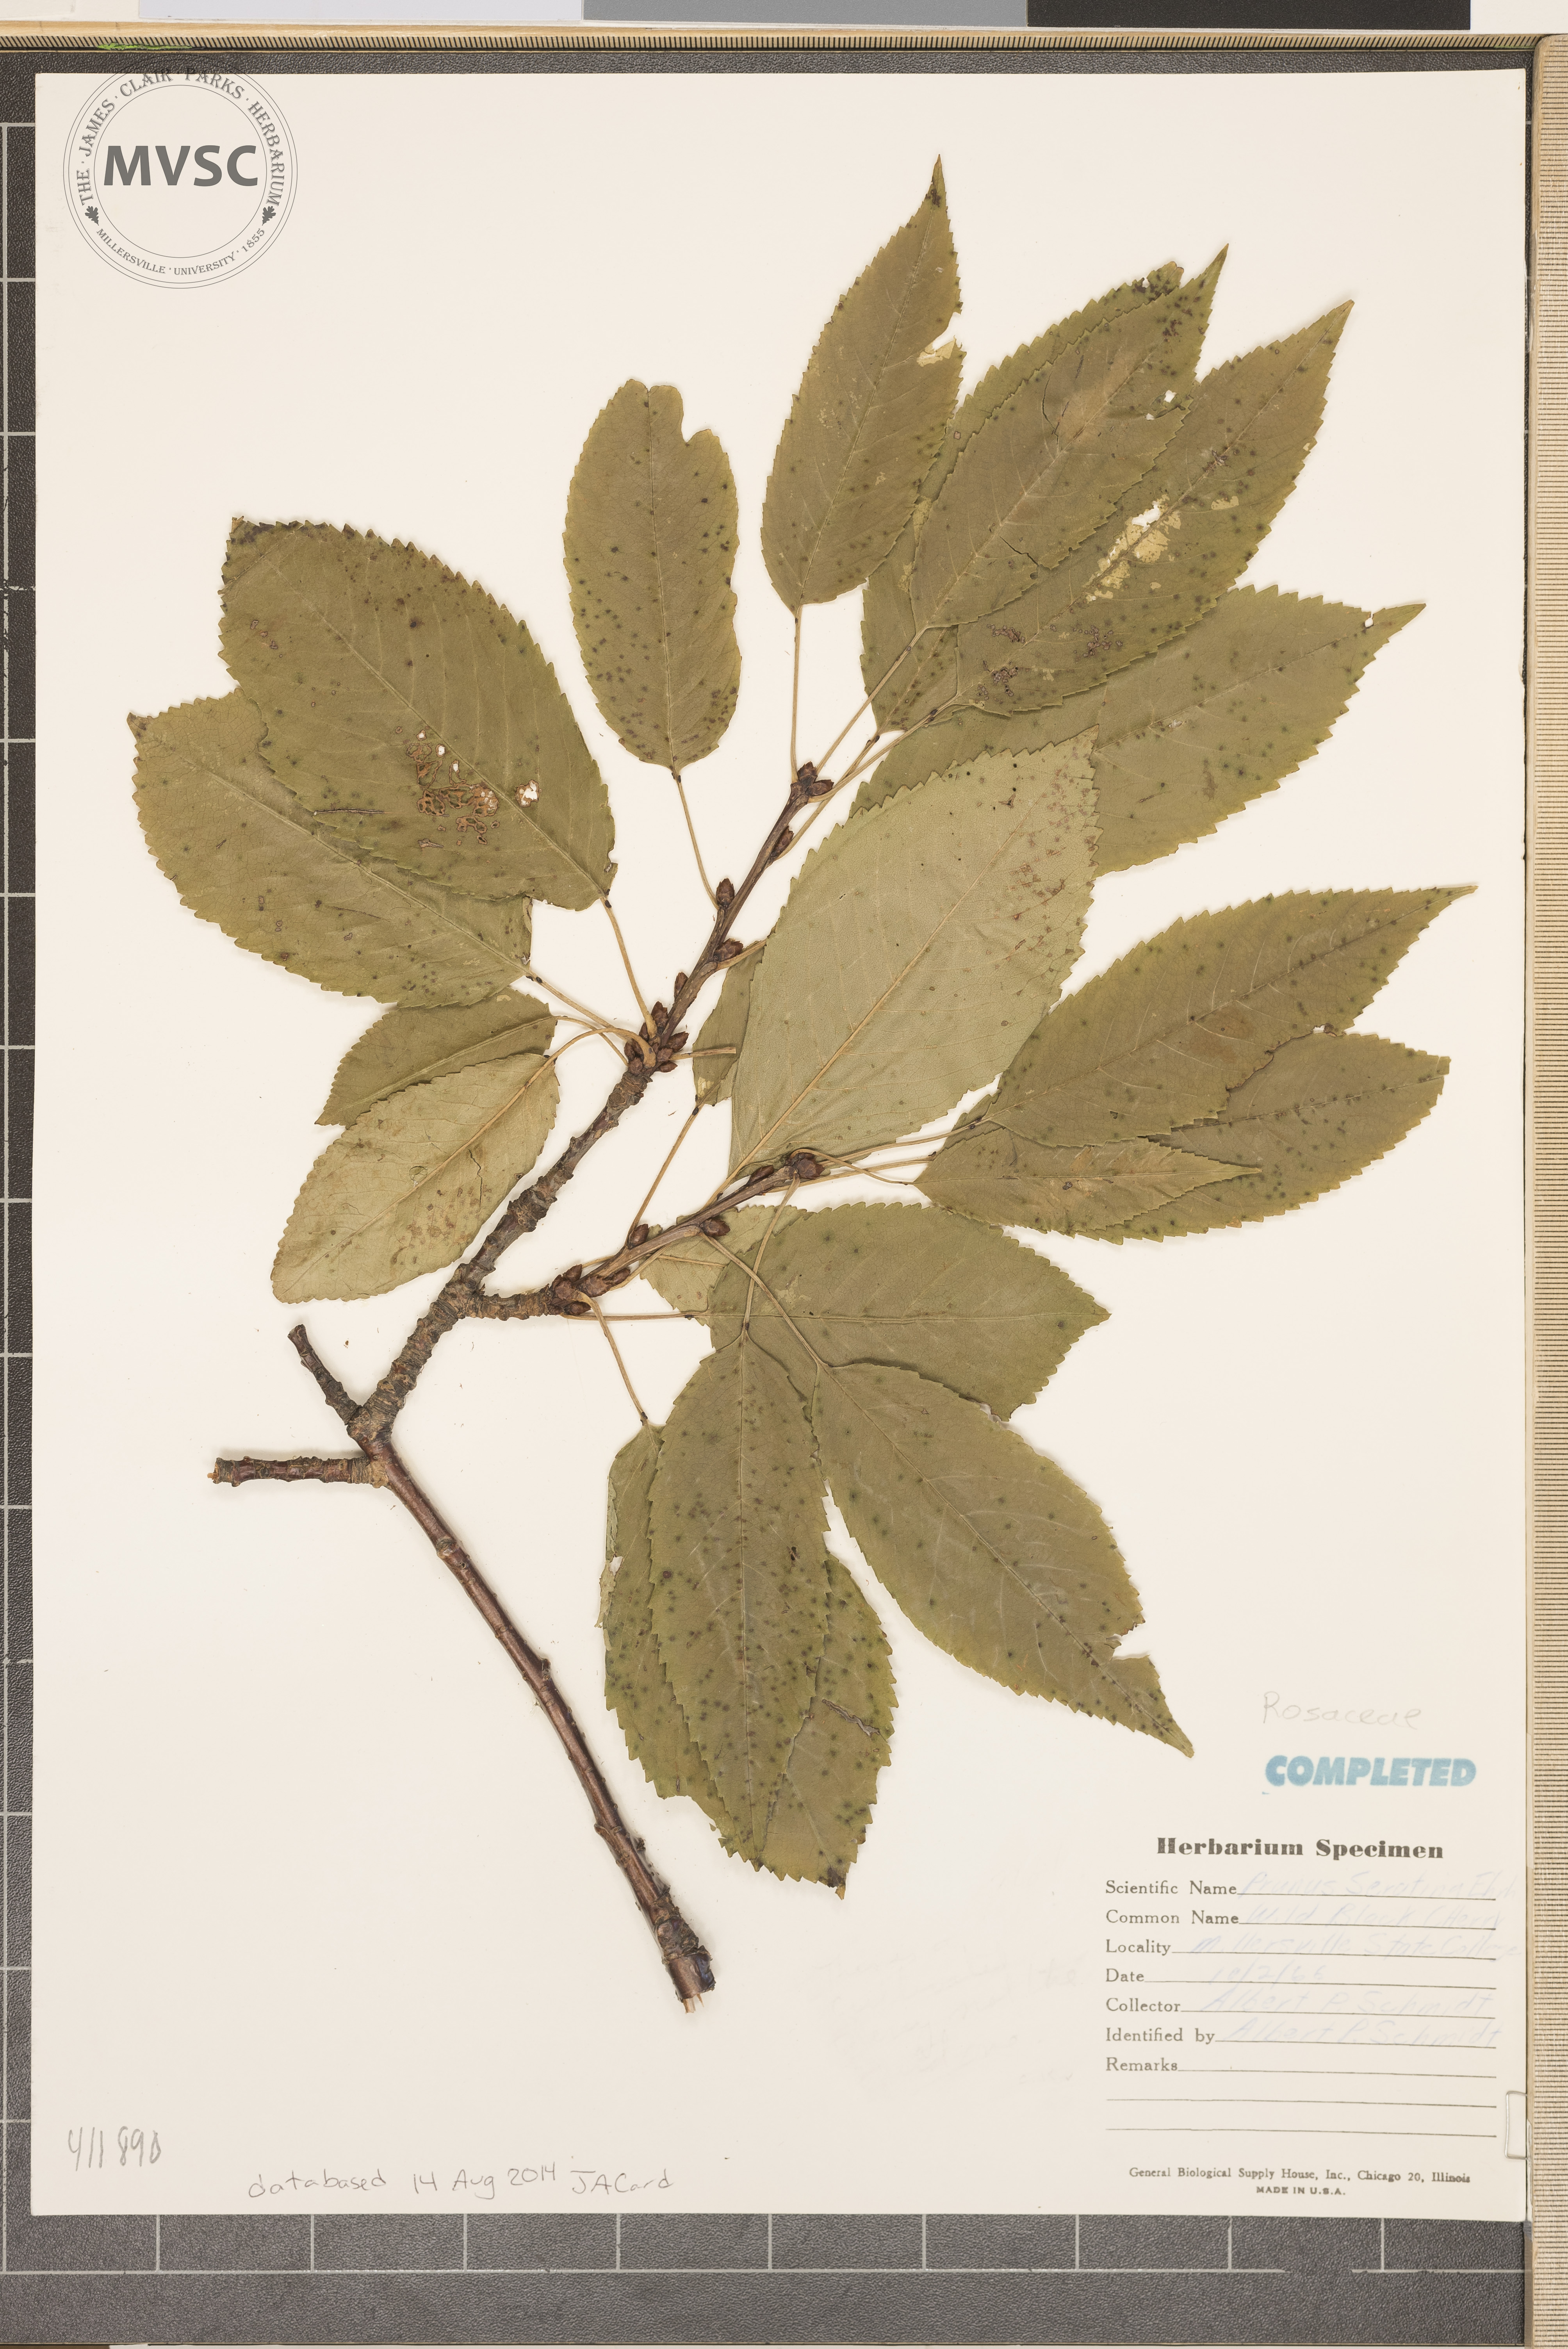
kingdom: Plantae
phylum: Tracheophyta
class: Magnoliopsida
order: Rosales
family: Rosaceae
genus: Prunus
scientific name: Prunus serotina
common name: Wild Black Cherry
